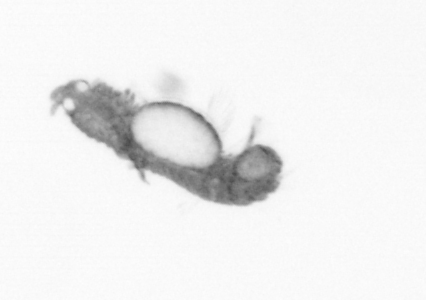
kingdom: Animalia
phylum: Annelida
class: Polychaeta
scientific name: Polychaeta
